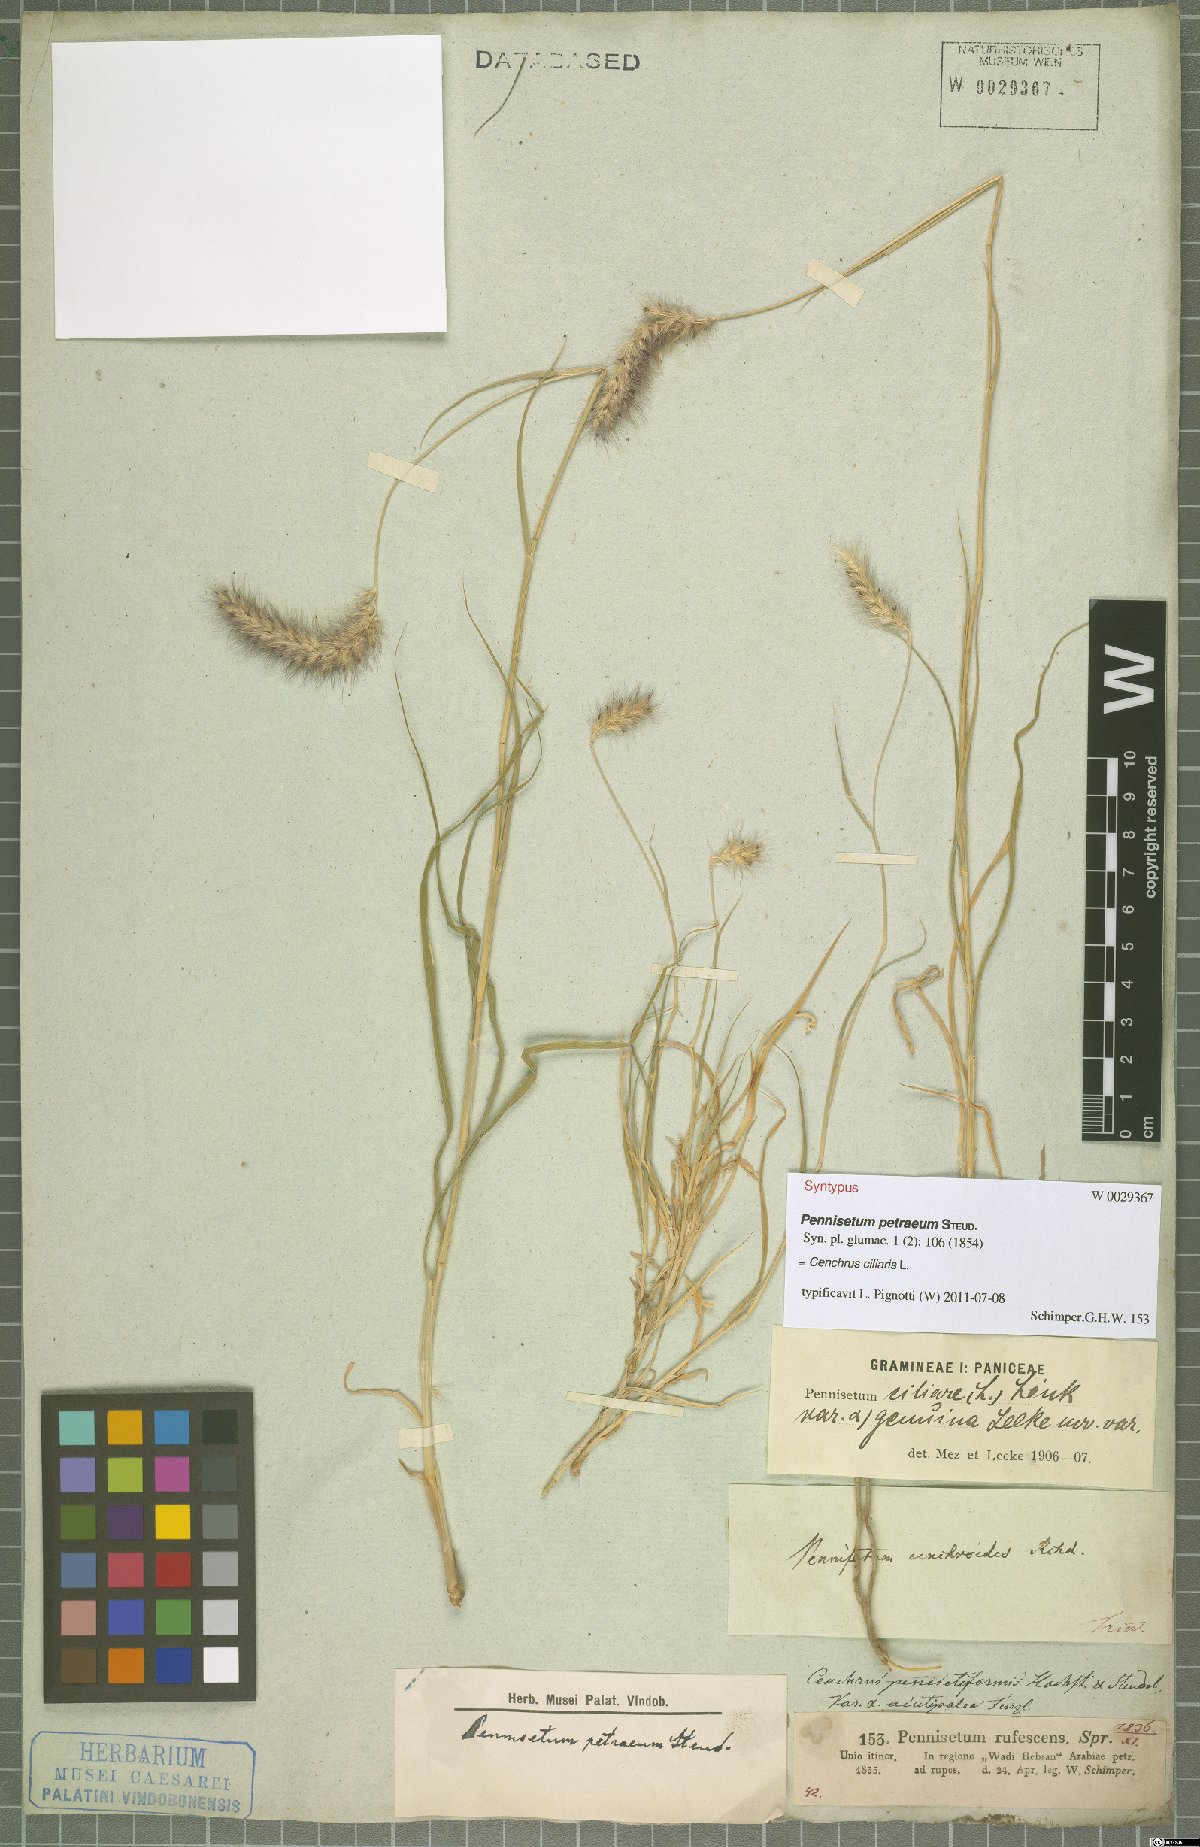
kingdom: Plantae
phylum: Tracheophyta
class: Liliopsida
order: Poales
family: Poaceae
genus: Cenchrus
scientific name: Cenchrus ciliaris
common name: Buffelgrass
